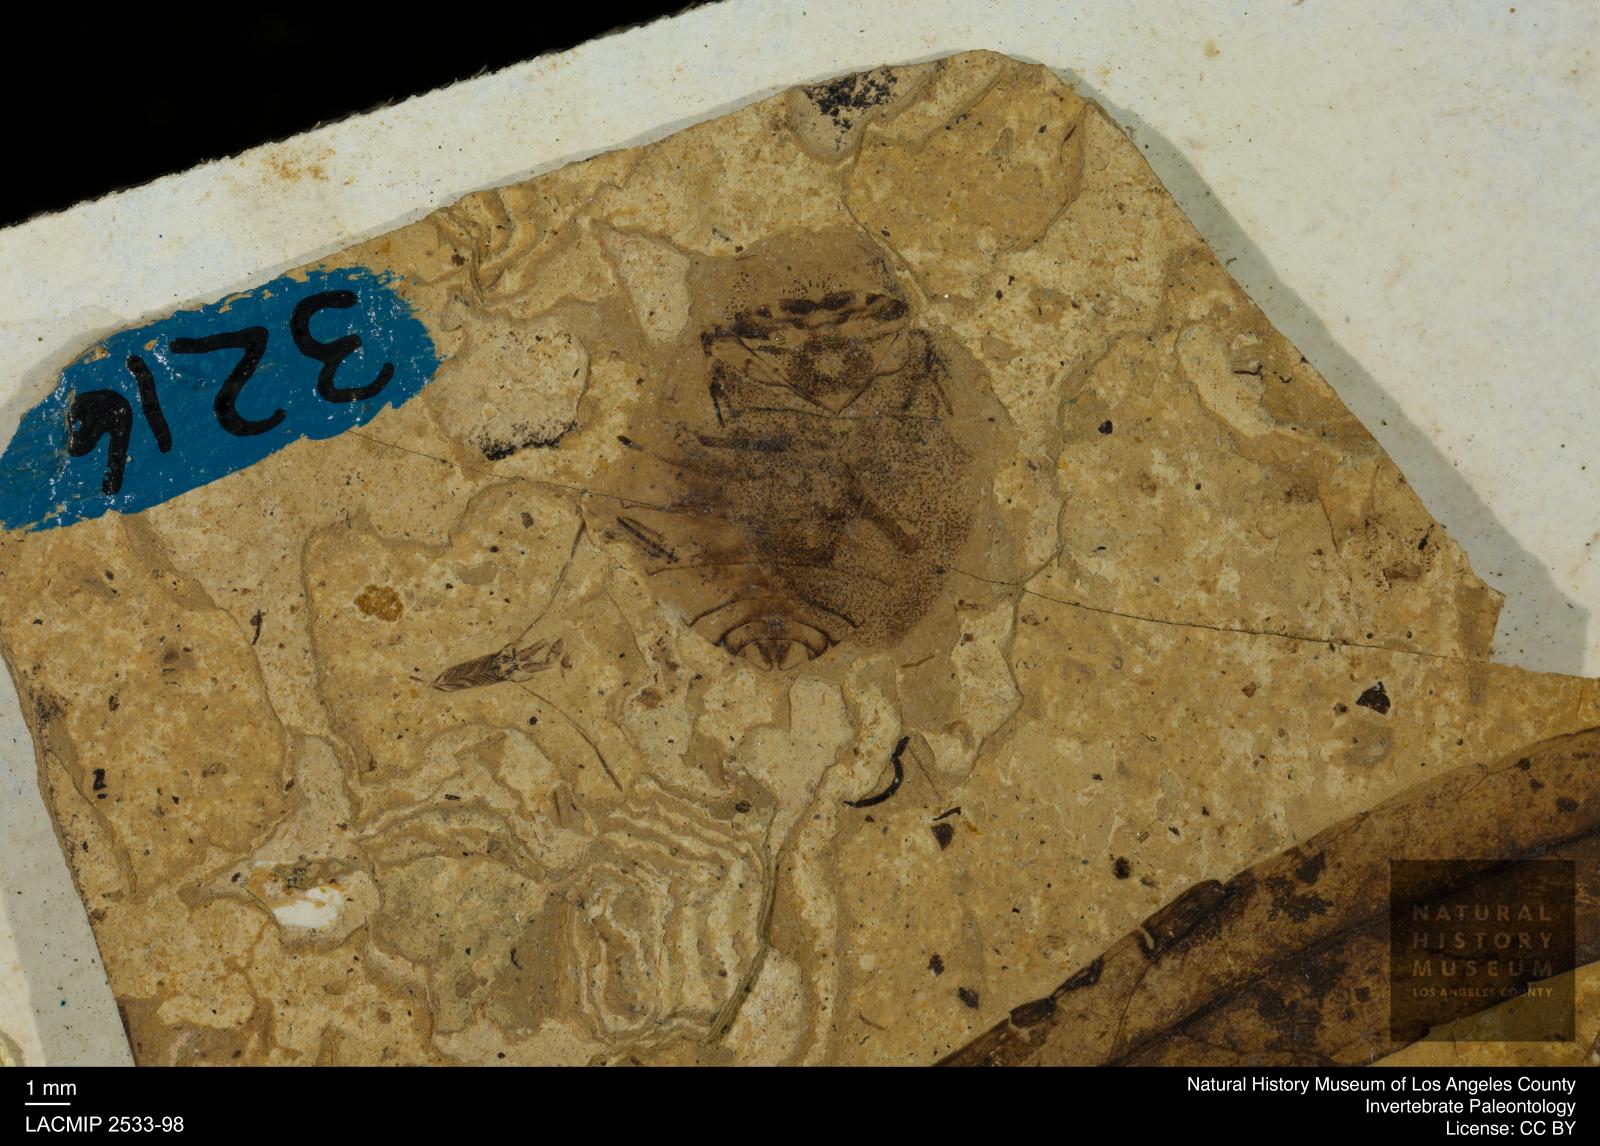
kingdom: Animalia
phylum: Arthropoda
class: Insecta
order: Hemiptera
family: Naucoridae
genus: Naucoris
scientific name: Naucoris rottensis
